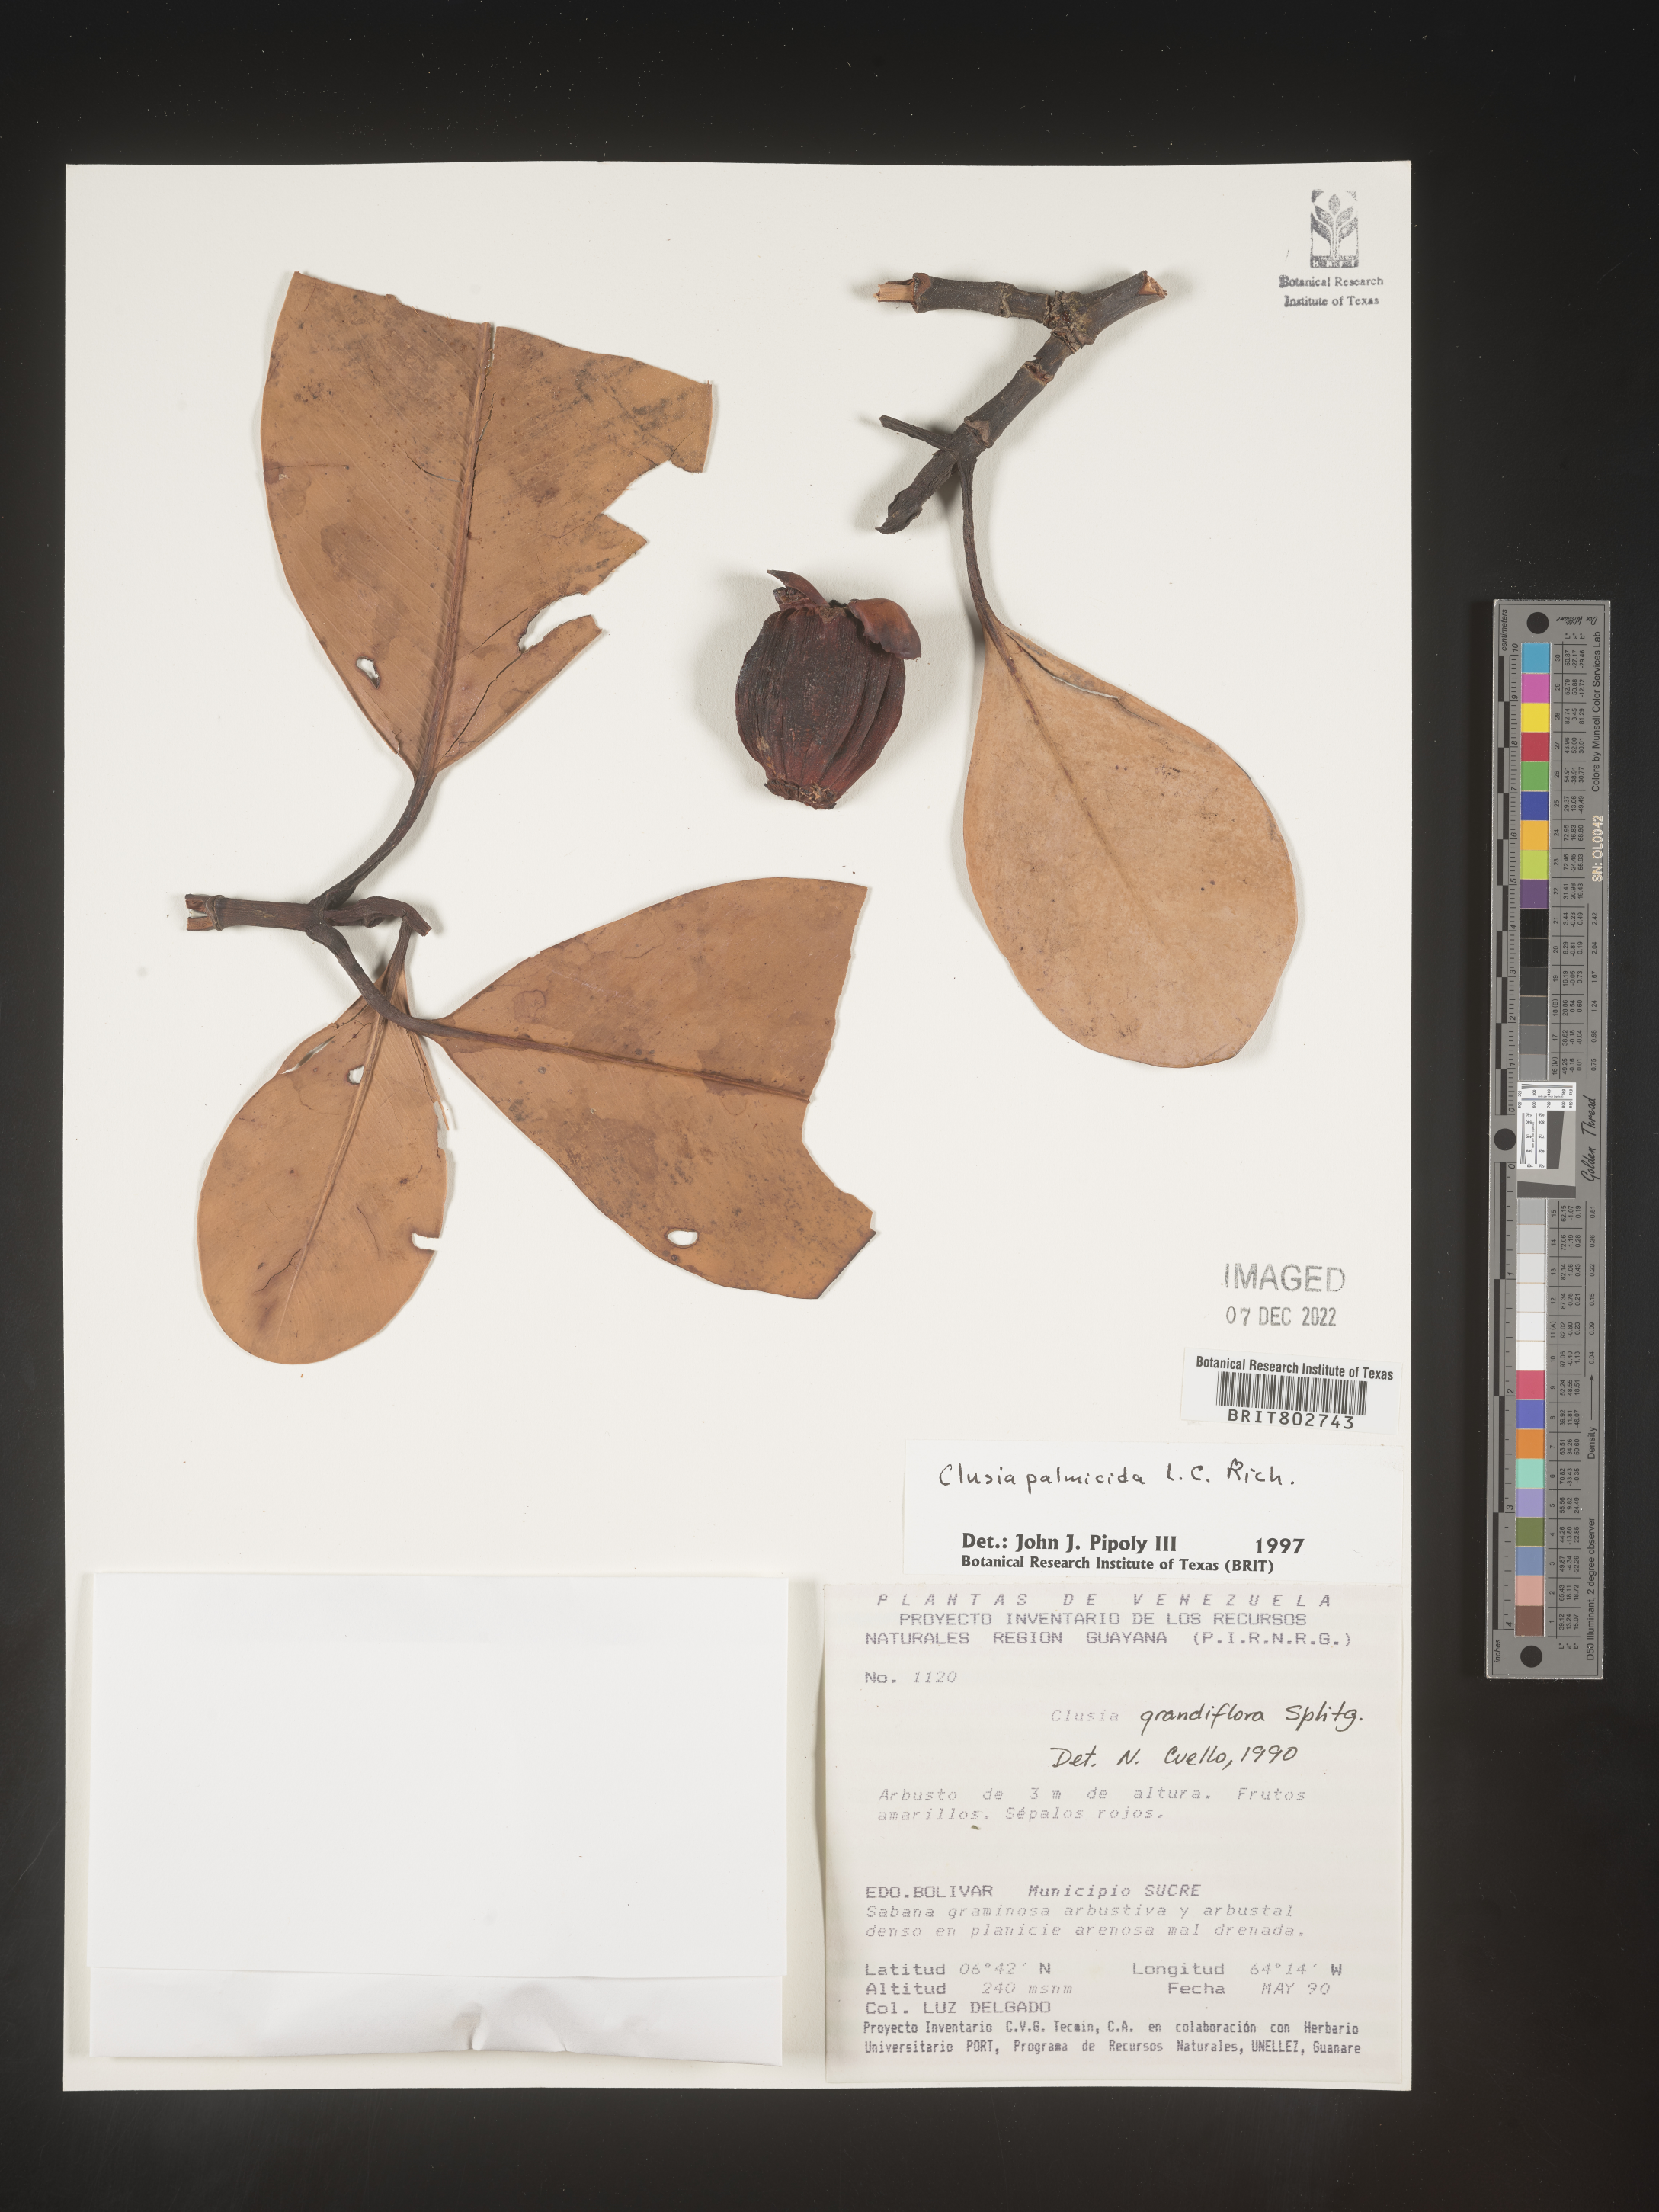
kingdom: Plantae
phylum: Tracheophyta
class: Magnoliopsida
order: Malpighiales
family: Clusiaceae
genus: Clusia
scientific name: Clusia palmicida
